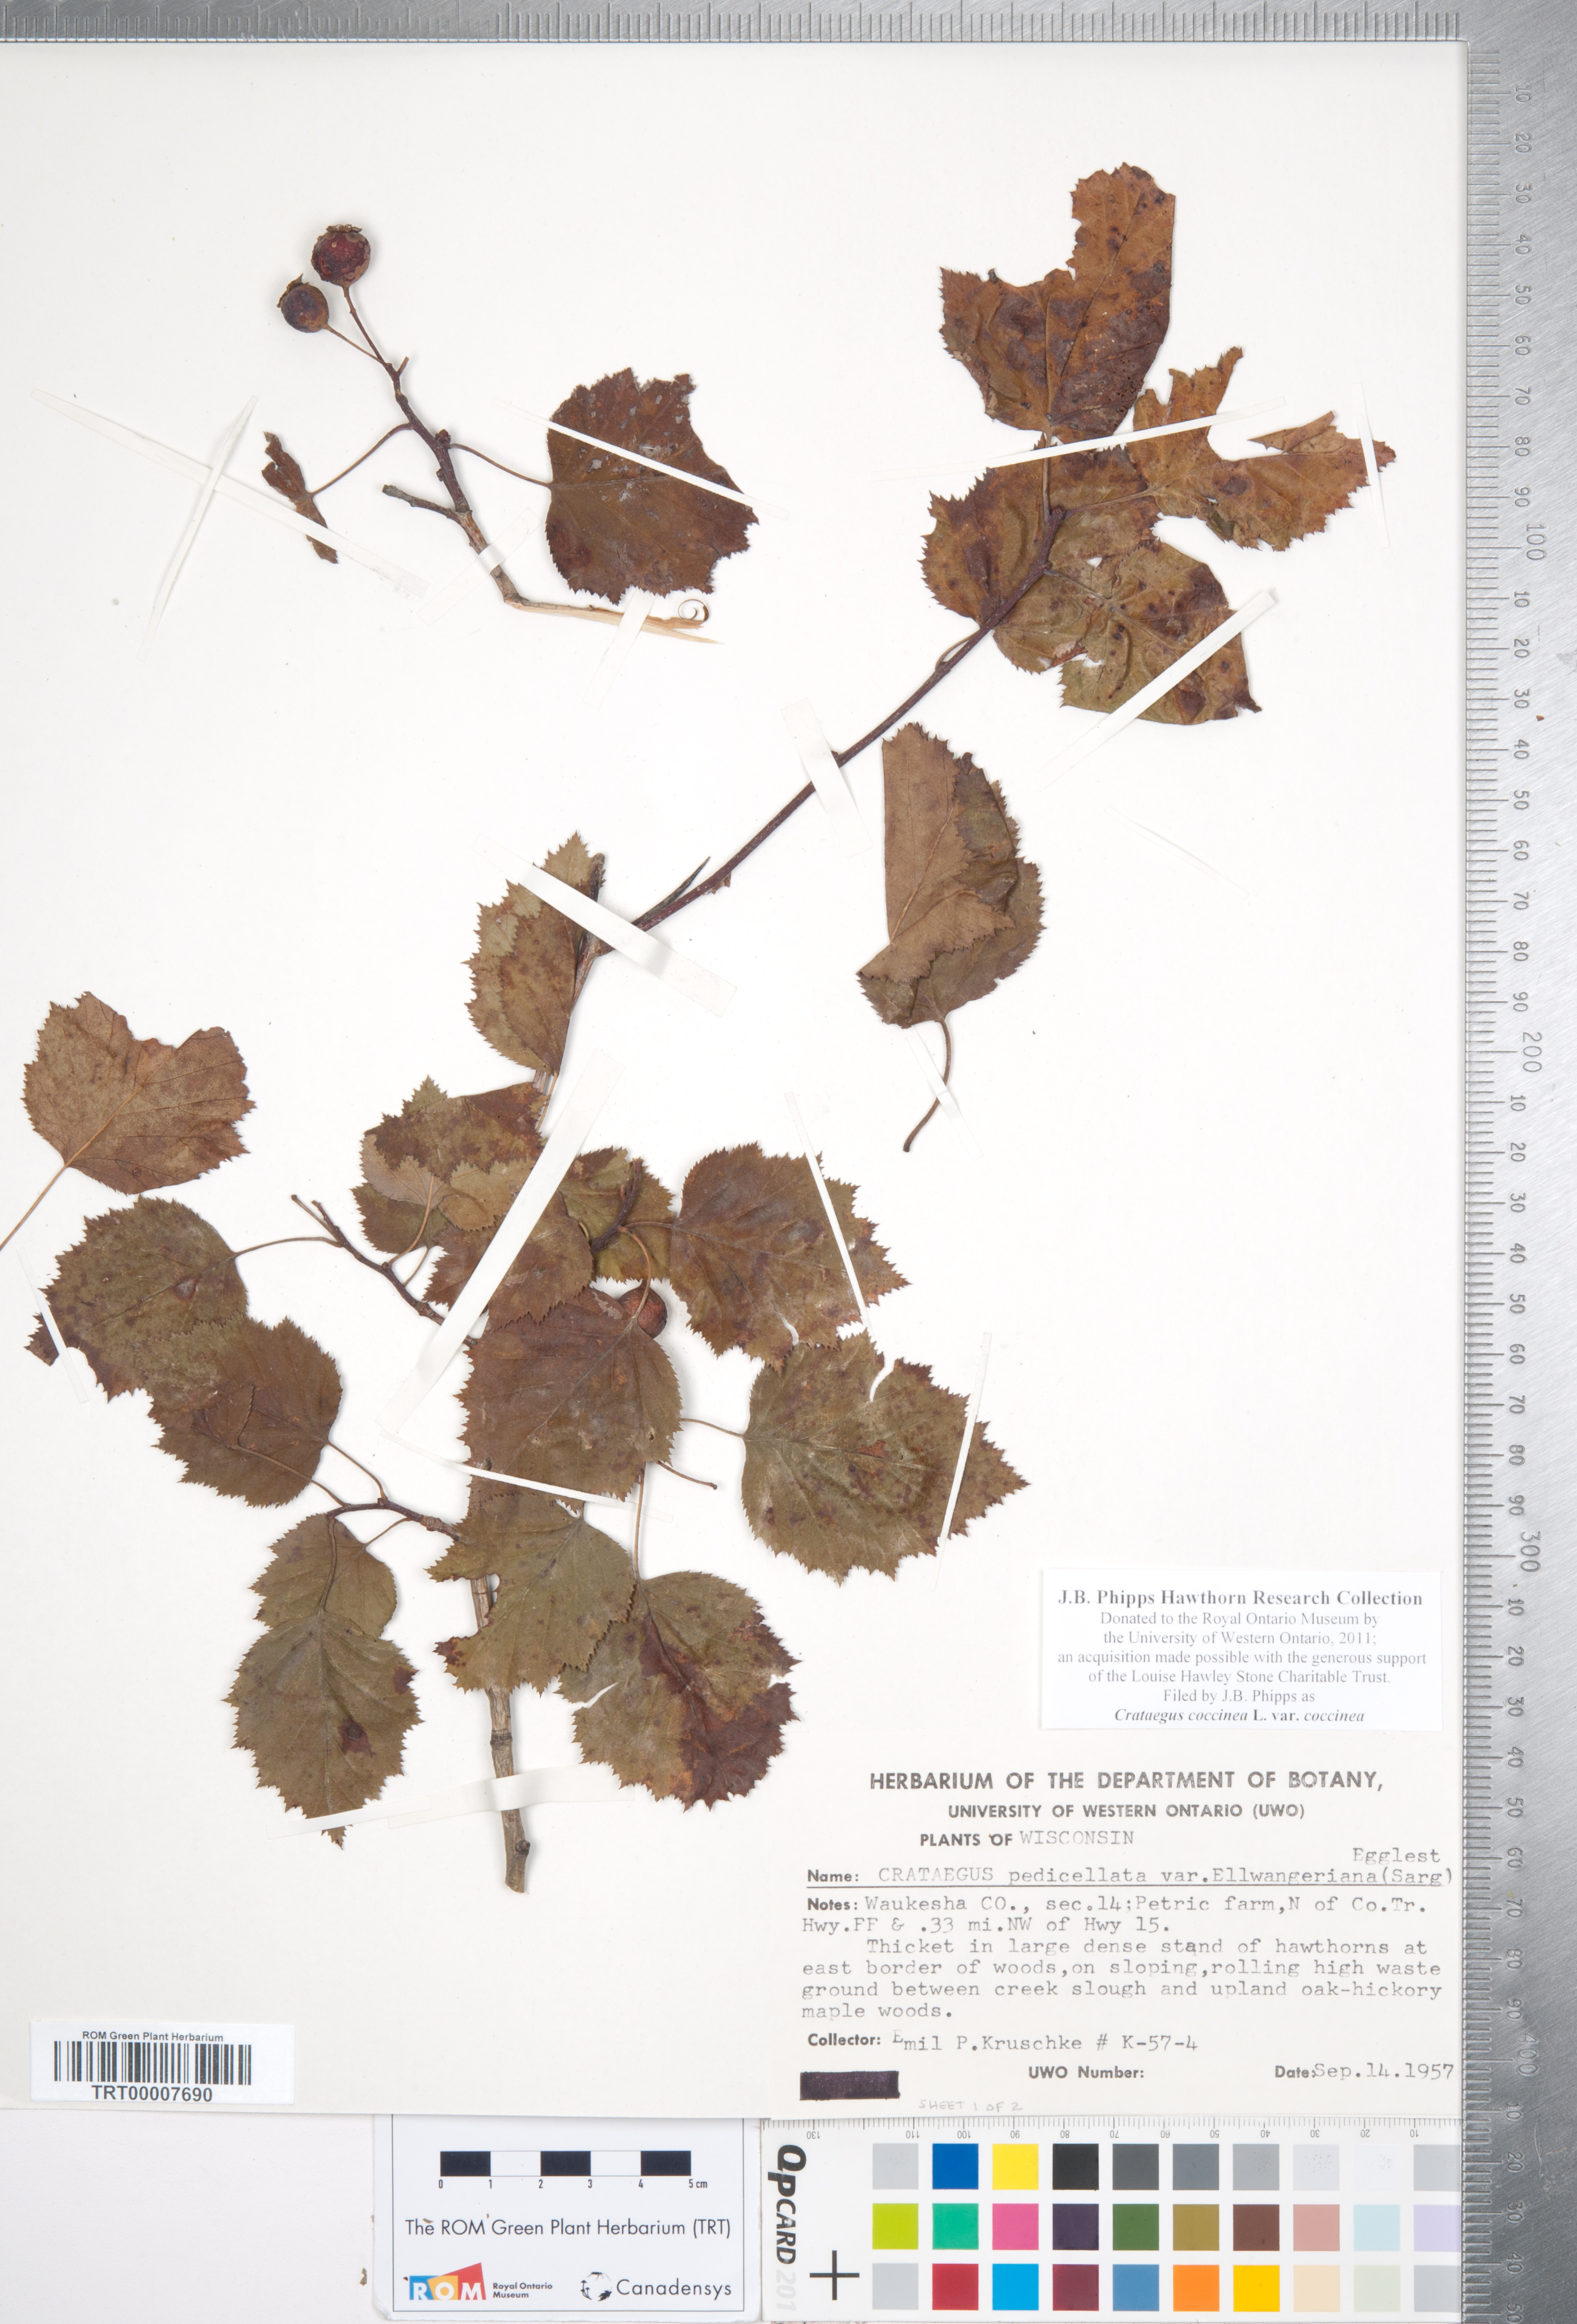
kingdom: Plantae
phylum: Tracheophyta
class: Magnoliopsida
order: Rosales
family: Rosaceae
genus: Crataegus
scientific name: Crataegus coccinea
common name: Scarlet hawthorn
